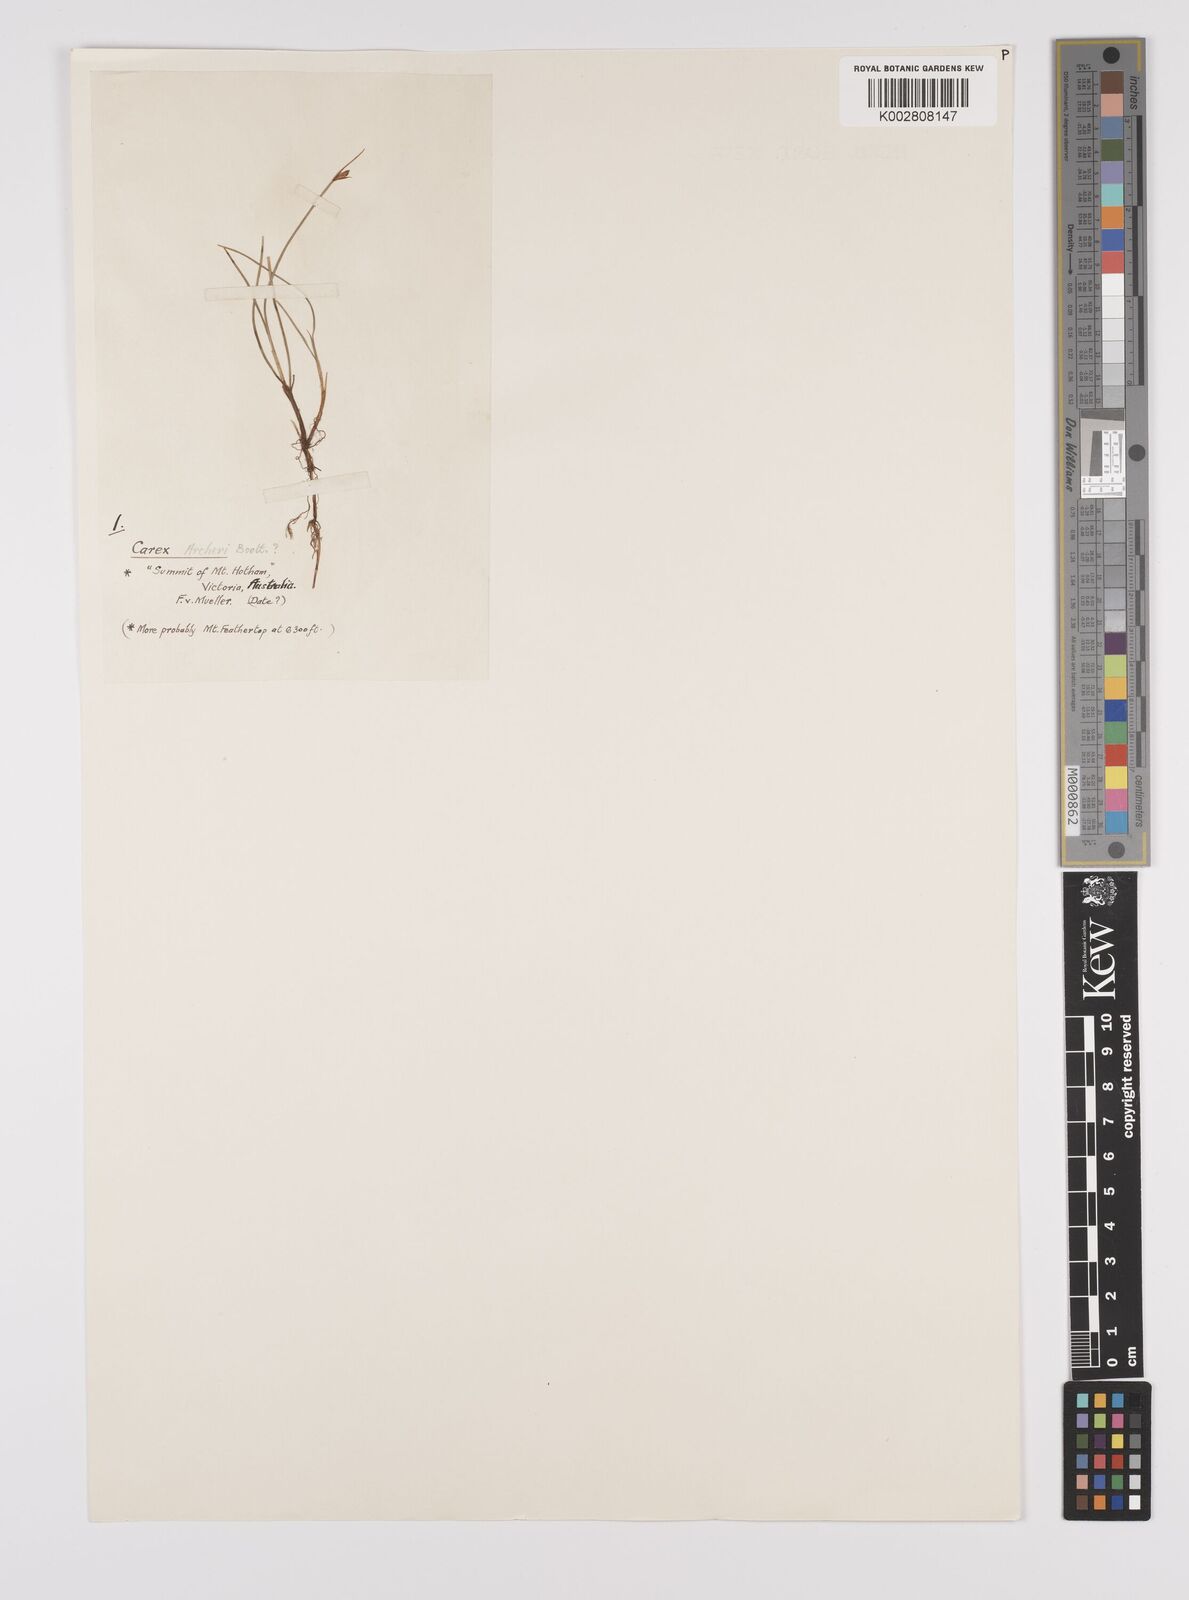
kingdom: Plantae
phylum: Tracheophyta
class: Liliopsida
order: Poales
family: Cyperaceae
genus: Carex
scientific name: Carex archeri
